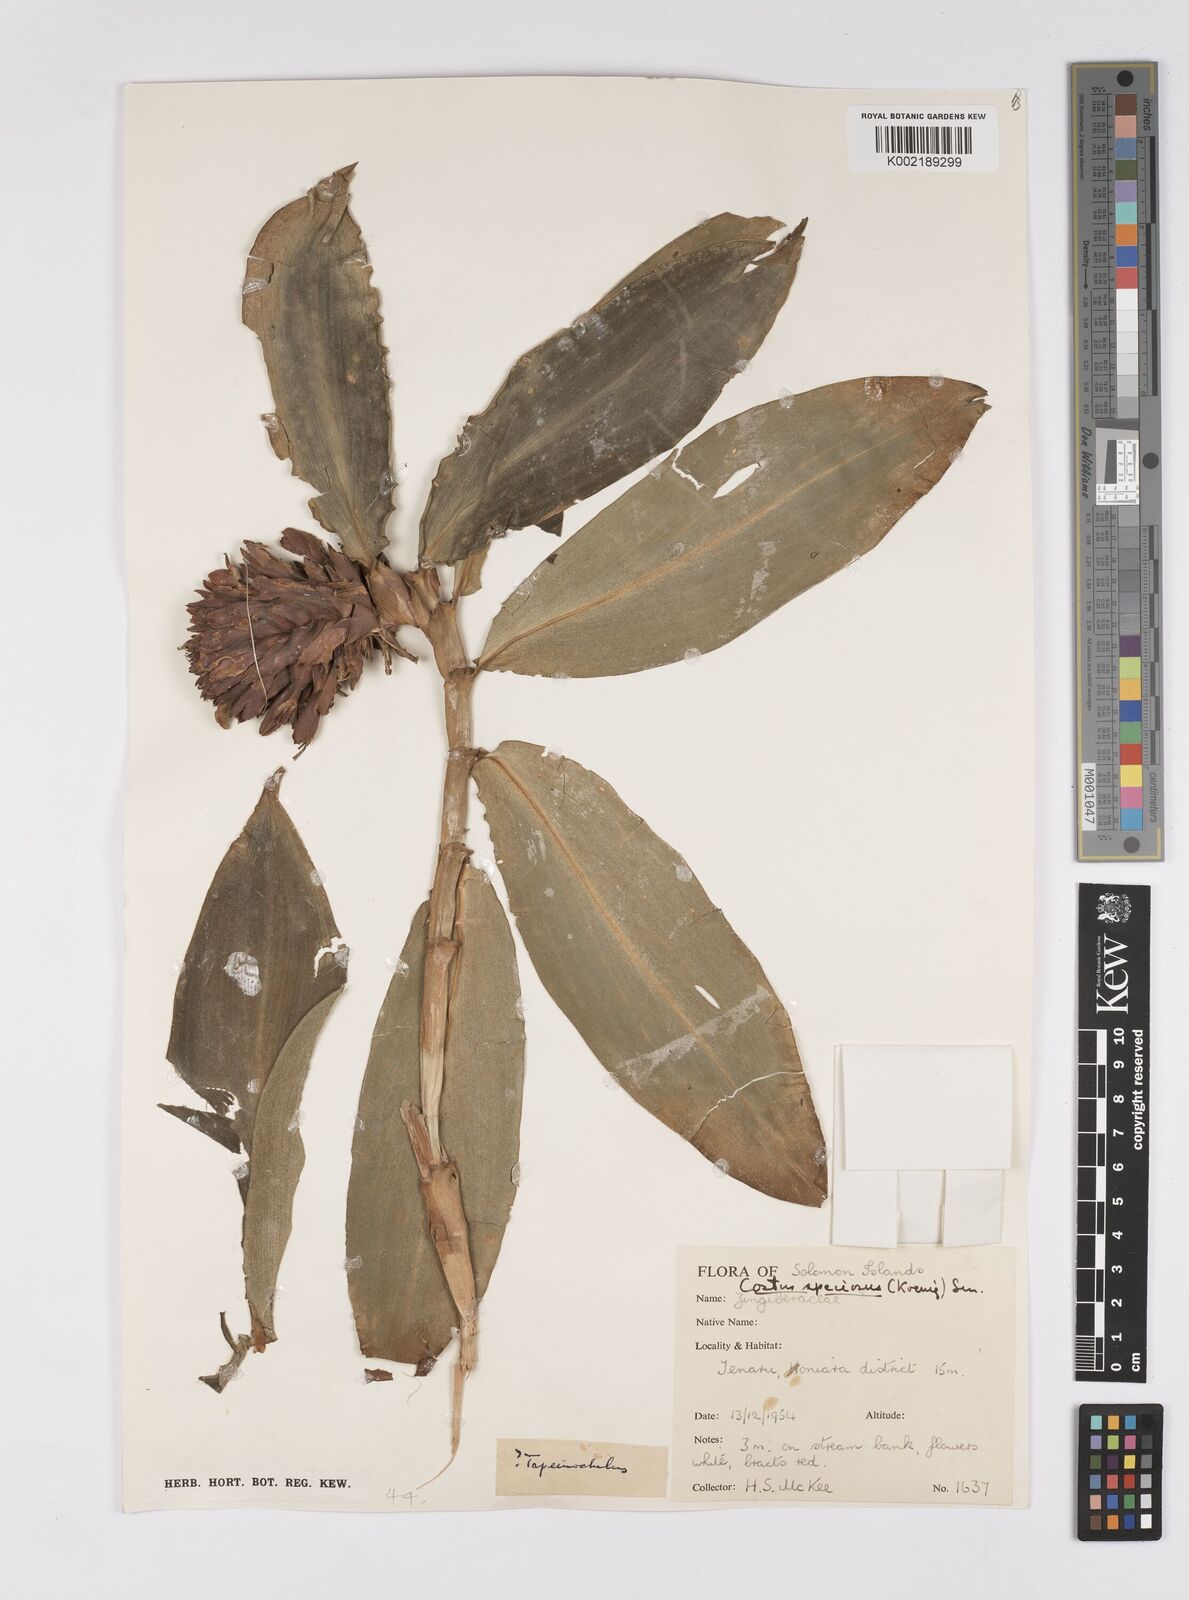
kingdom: Plantae
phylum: Tracheophyta
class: Liliopsida
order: Zingiberales
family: Costaceae
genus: Hellenia
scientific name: Hellenia speciosa
